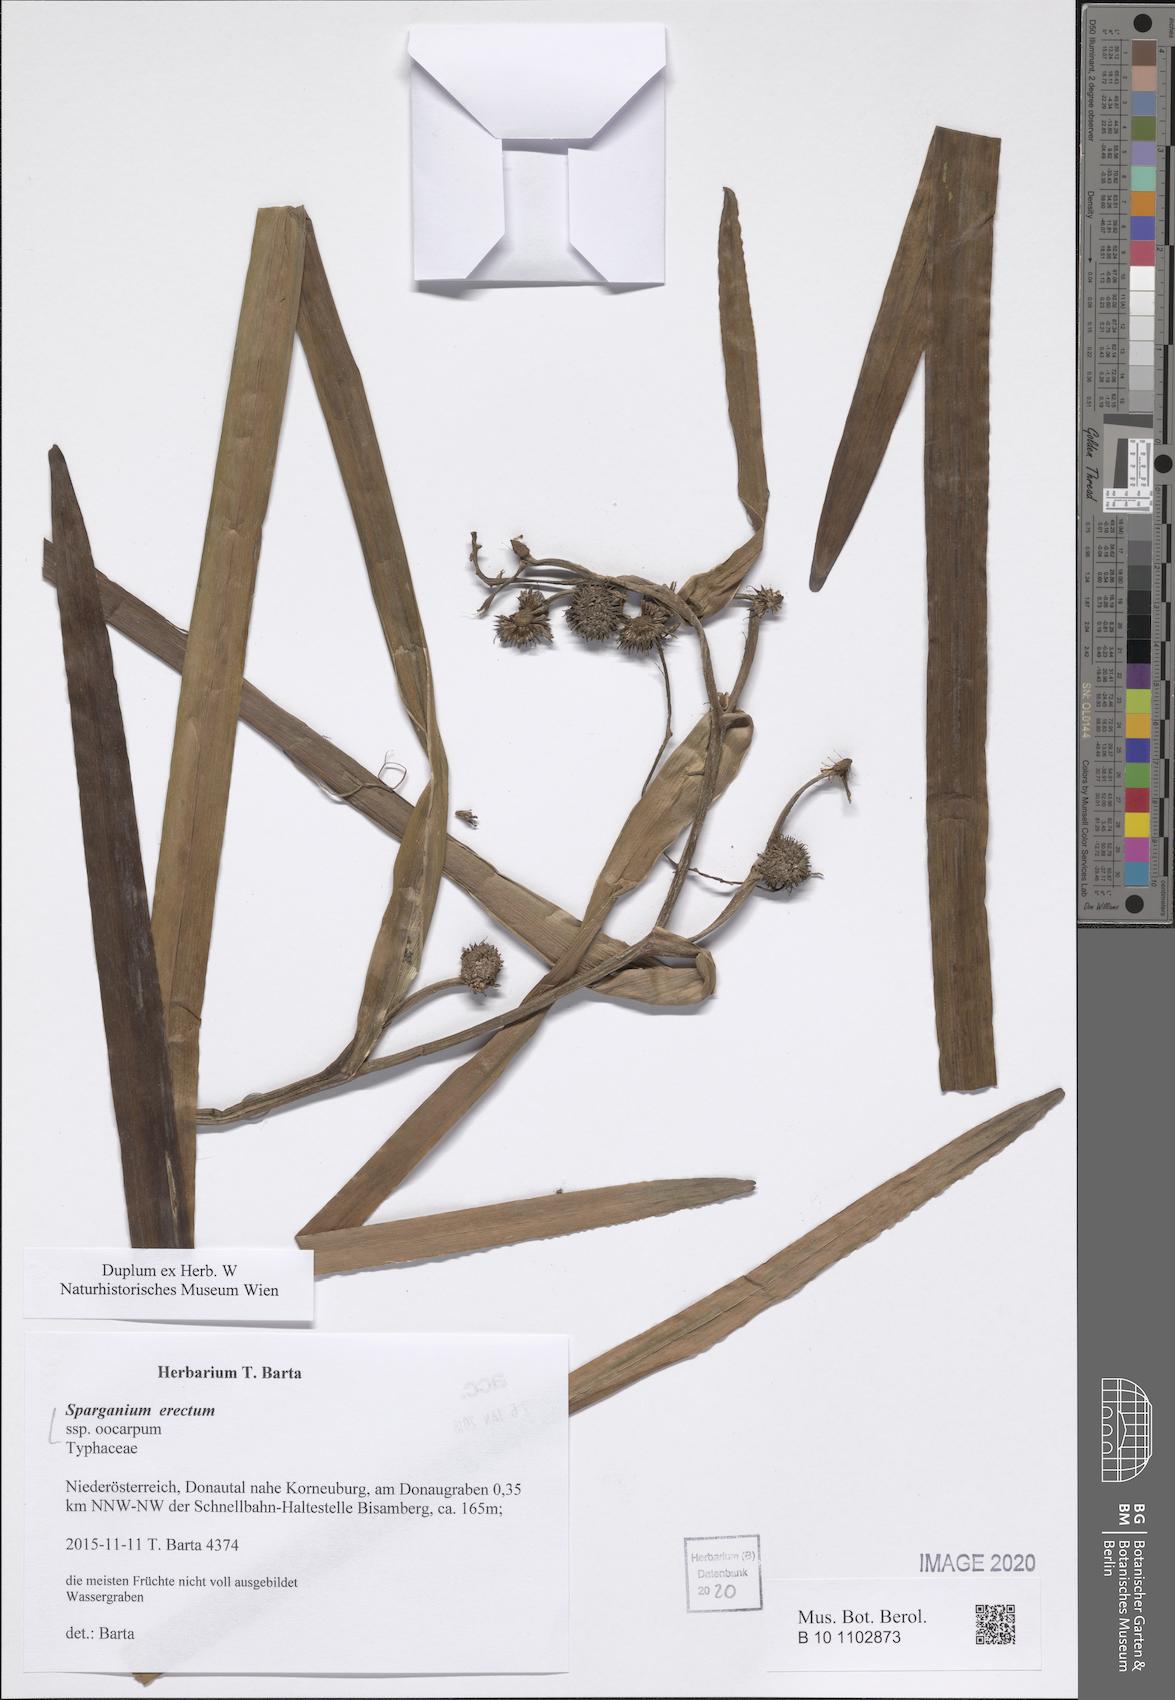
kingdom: Plantae
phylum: Tracheophyta
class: Liliopsida
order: Poales
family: Typhaceae
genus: Sparganium
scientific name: Sparganium erectum
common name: Branched bur-reed
